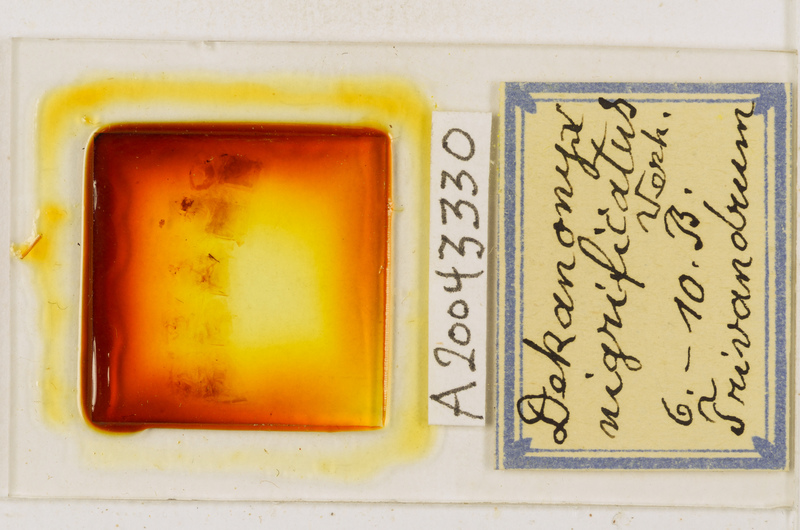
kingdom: Animalia
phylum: Arthropoda
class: Chilopoda
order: Scolopendromorpha
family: Scolopendridae
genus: Cormocephalus
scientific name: Cormocephalus nigrificatus
